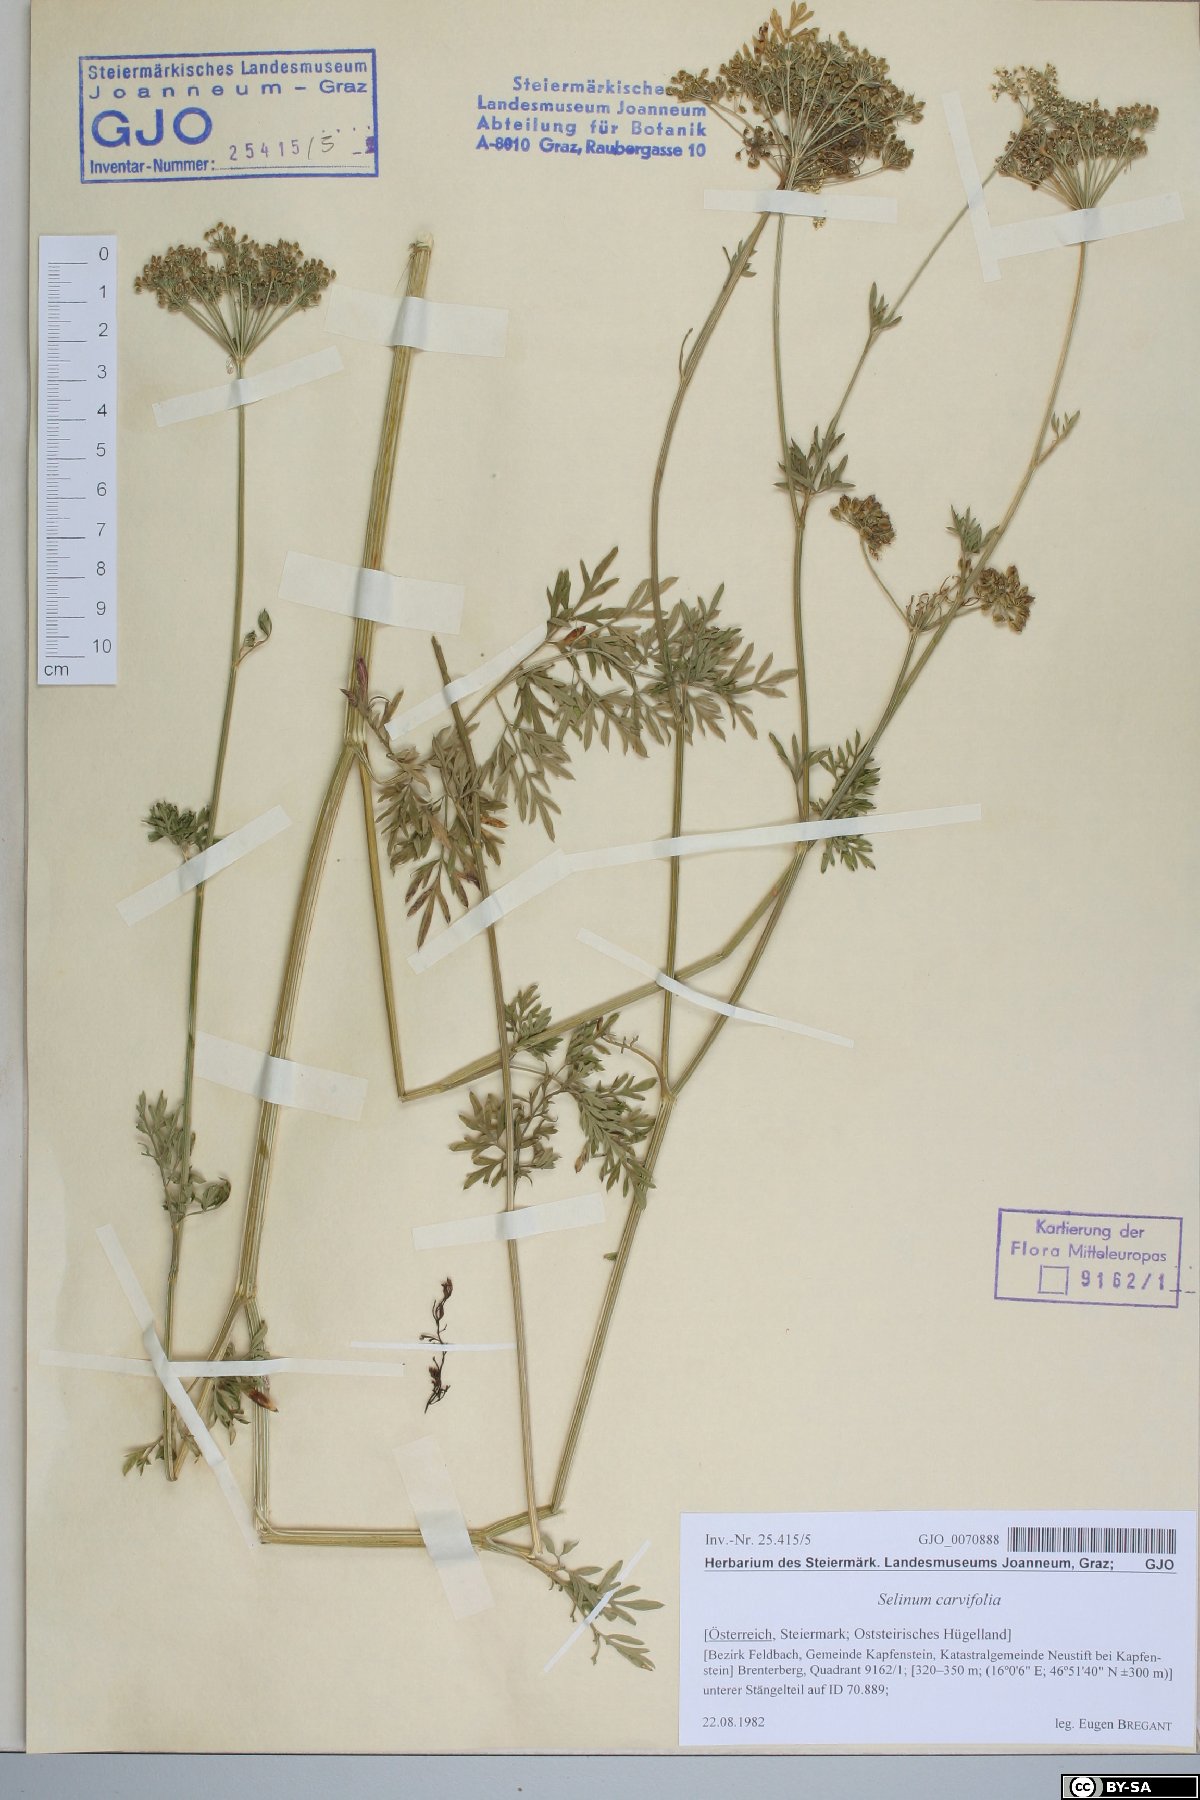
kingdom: Plantae
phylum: Tracheophyta
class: Magnoliopsida
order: Apiales
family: Apiaceae
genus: Selinum
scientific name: Selinum carvifolia
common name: Cambridge milk-parsley
